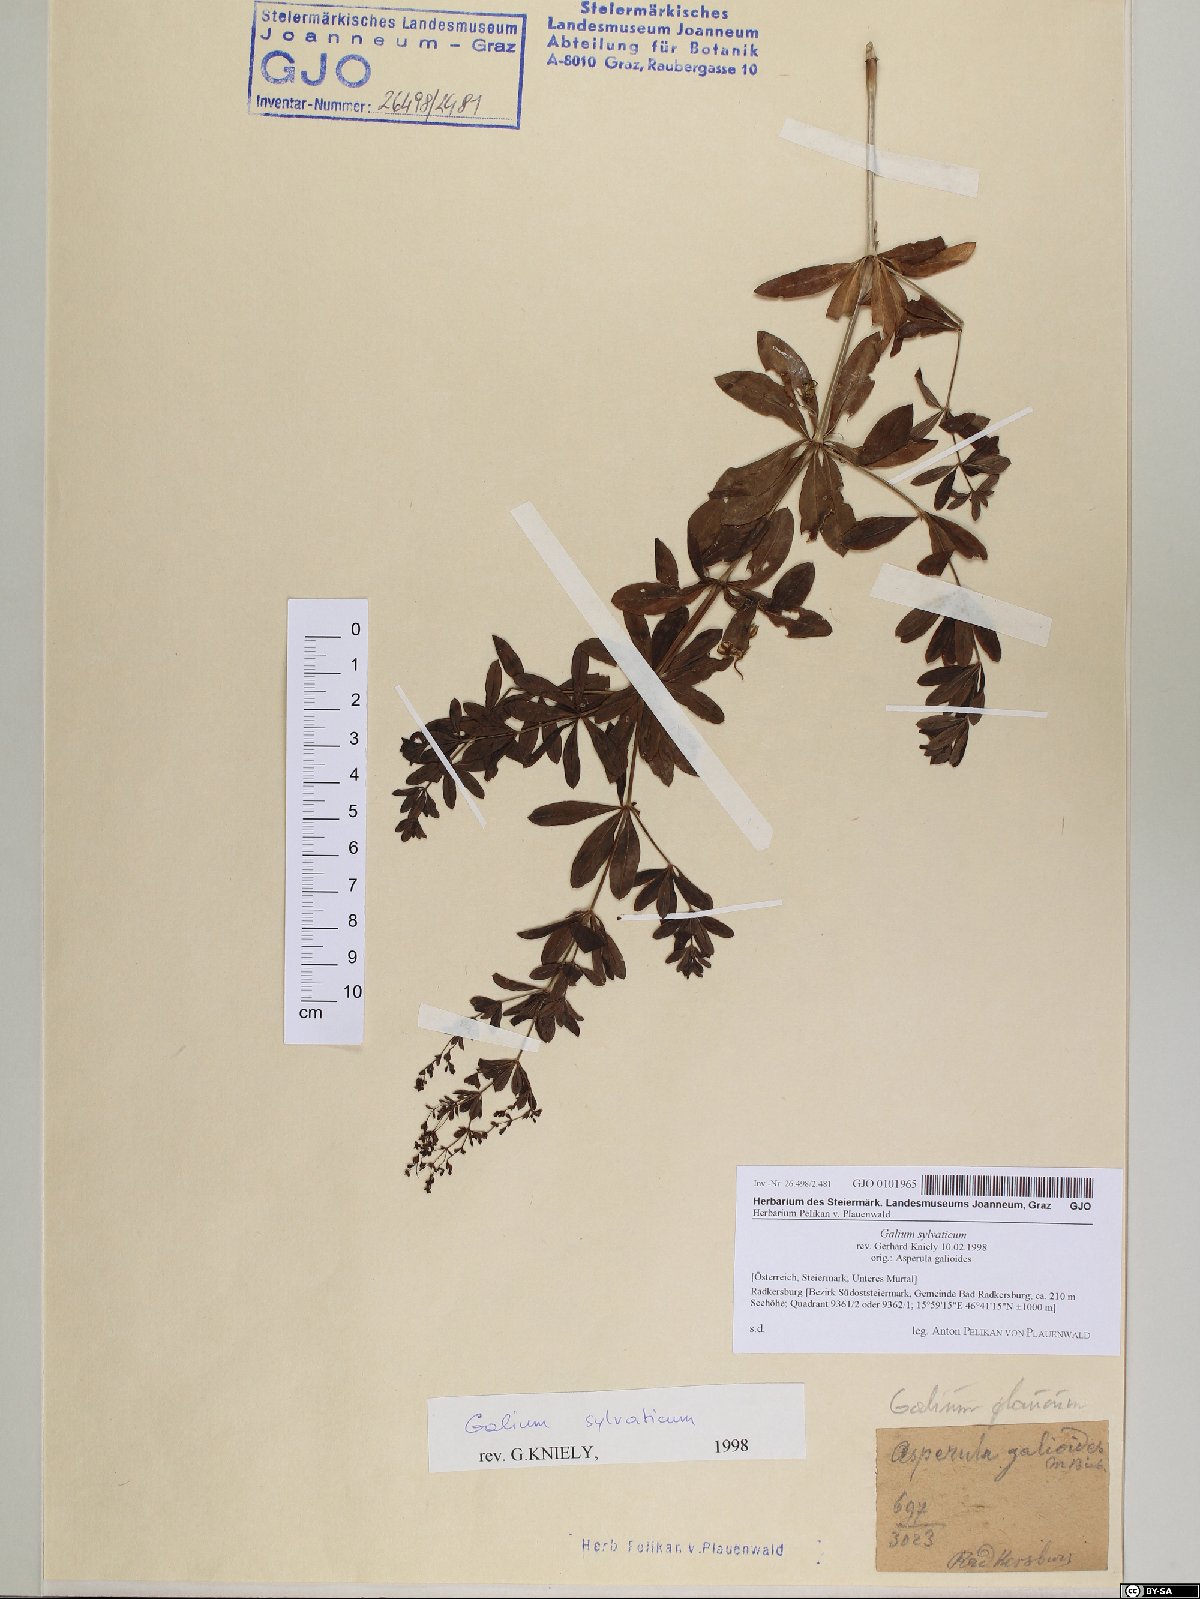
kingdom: Plantae
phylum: Tracheophyta
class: Magnoliopsida
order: Gentianales
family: Rubiaceae
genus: Galium
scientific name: Galium sylvaticum
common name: Wood bedstraw
